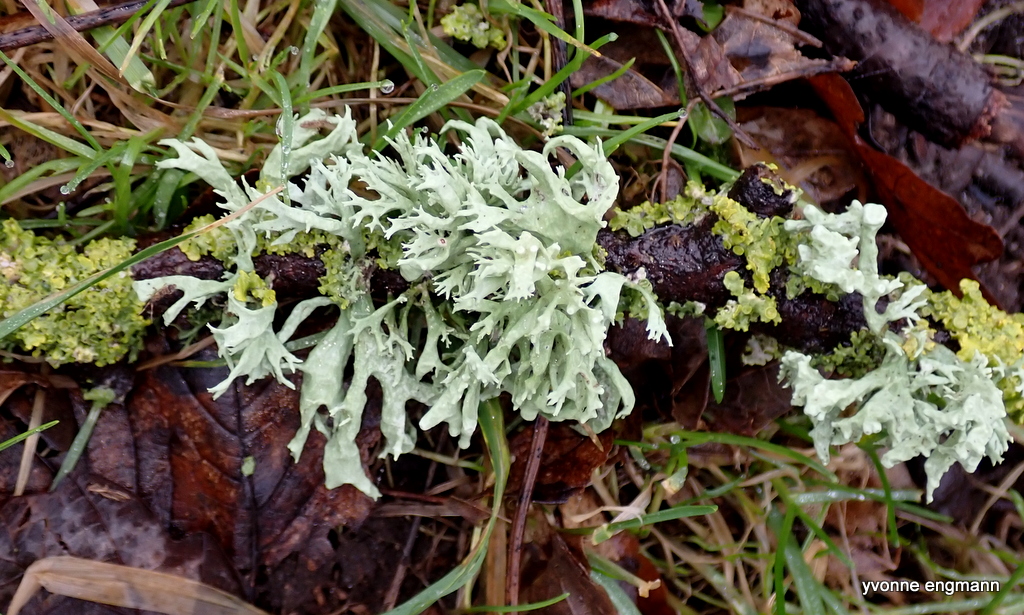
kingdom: Fungi
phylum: Ascomycota
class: Lecanoromycetes
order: Lecanorales
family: Parmeliaceae
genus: Evernia
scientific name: Evernia prunastri
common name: almindelig slåenlav
